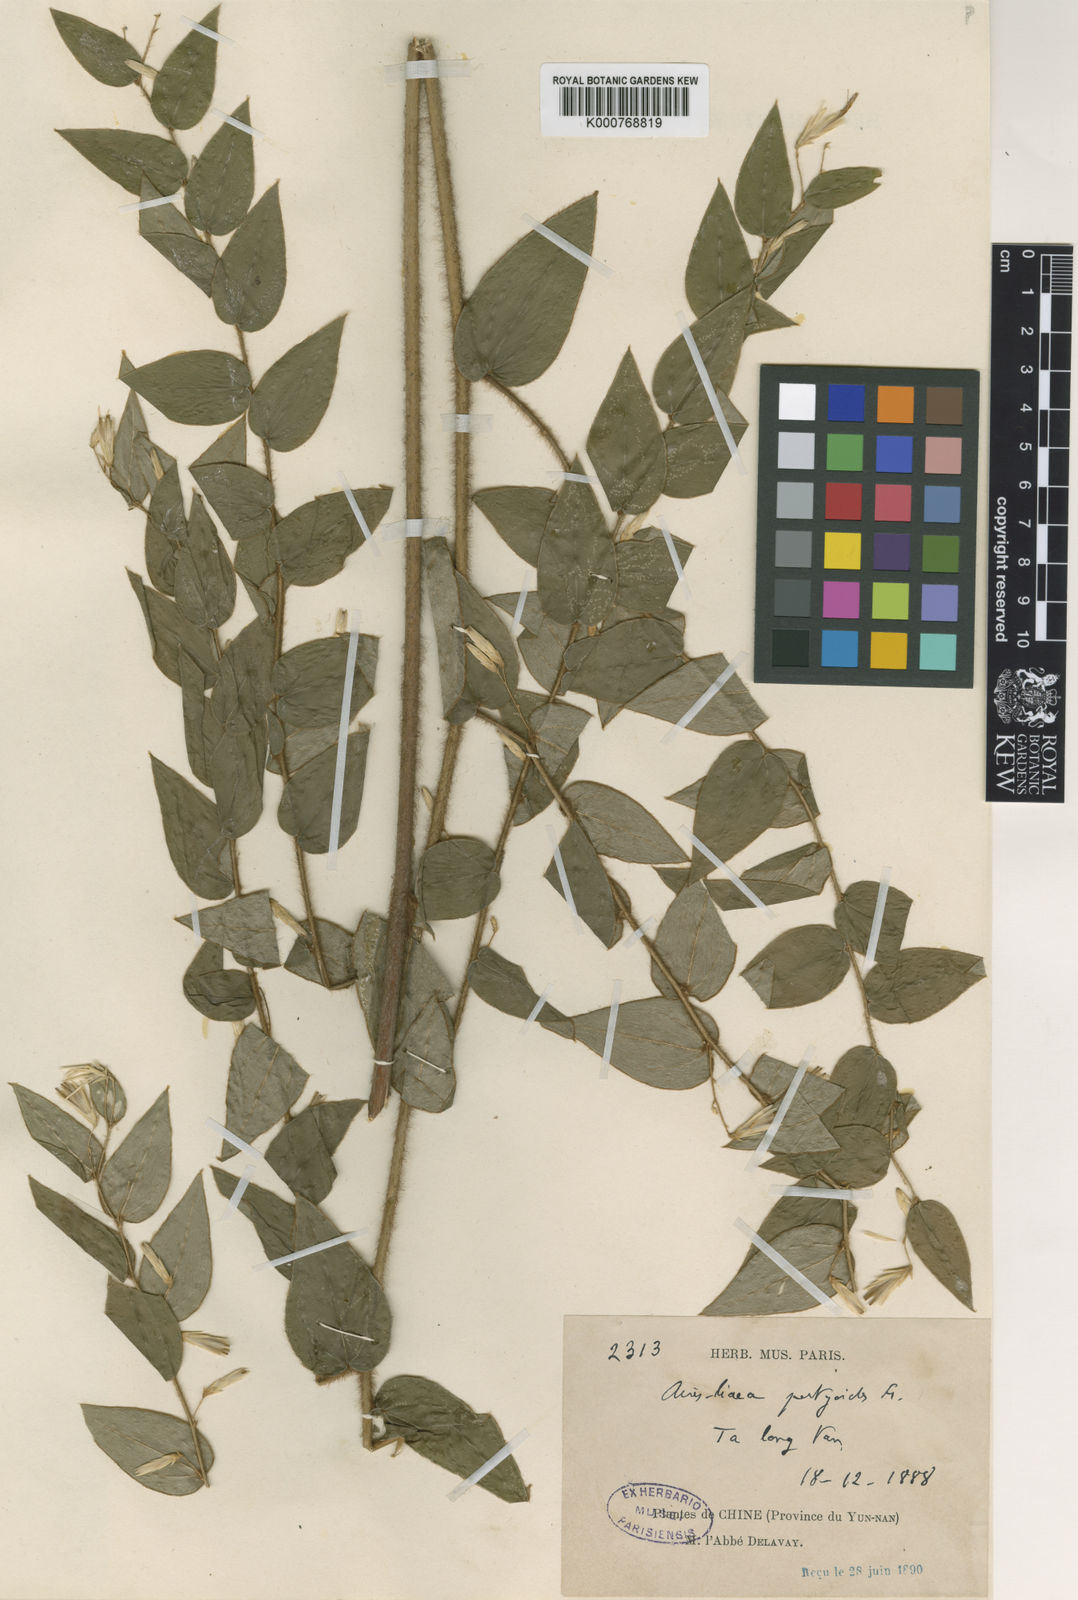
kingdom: Plantae
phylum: Tracheophyta
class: Magnoliopsida
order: Asterales
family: Asteraceae
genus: Ainsliaea
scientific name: Ainsliaea pertyoides
